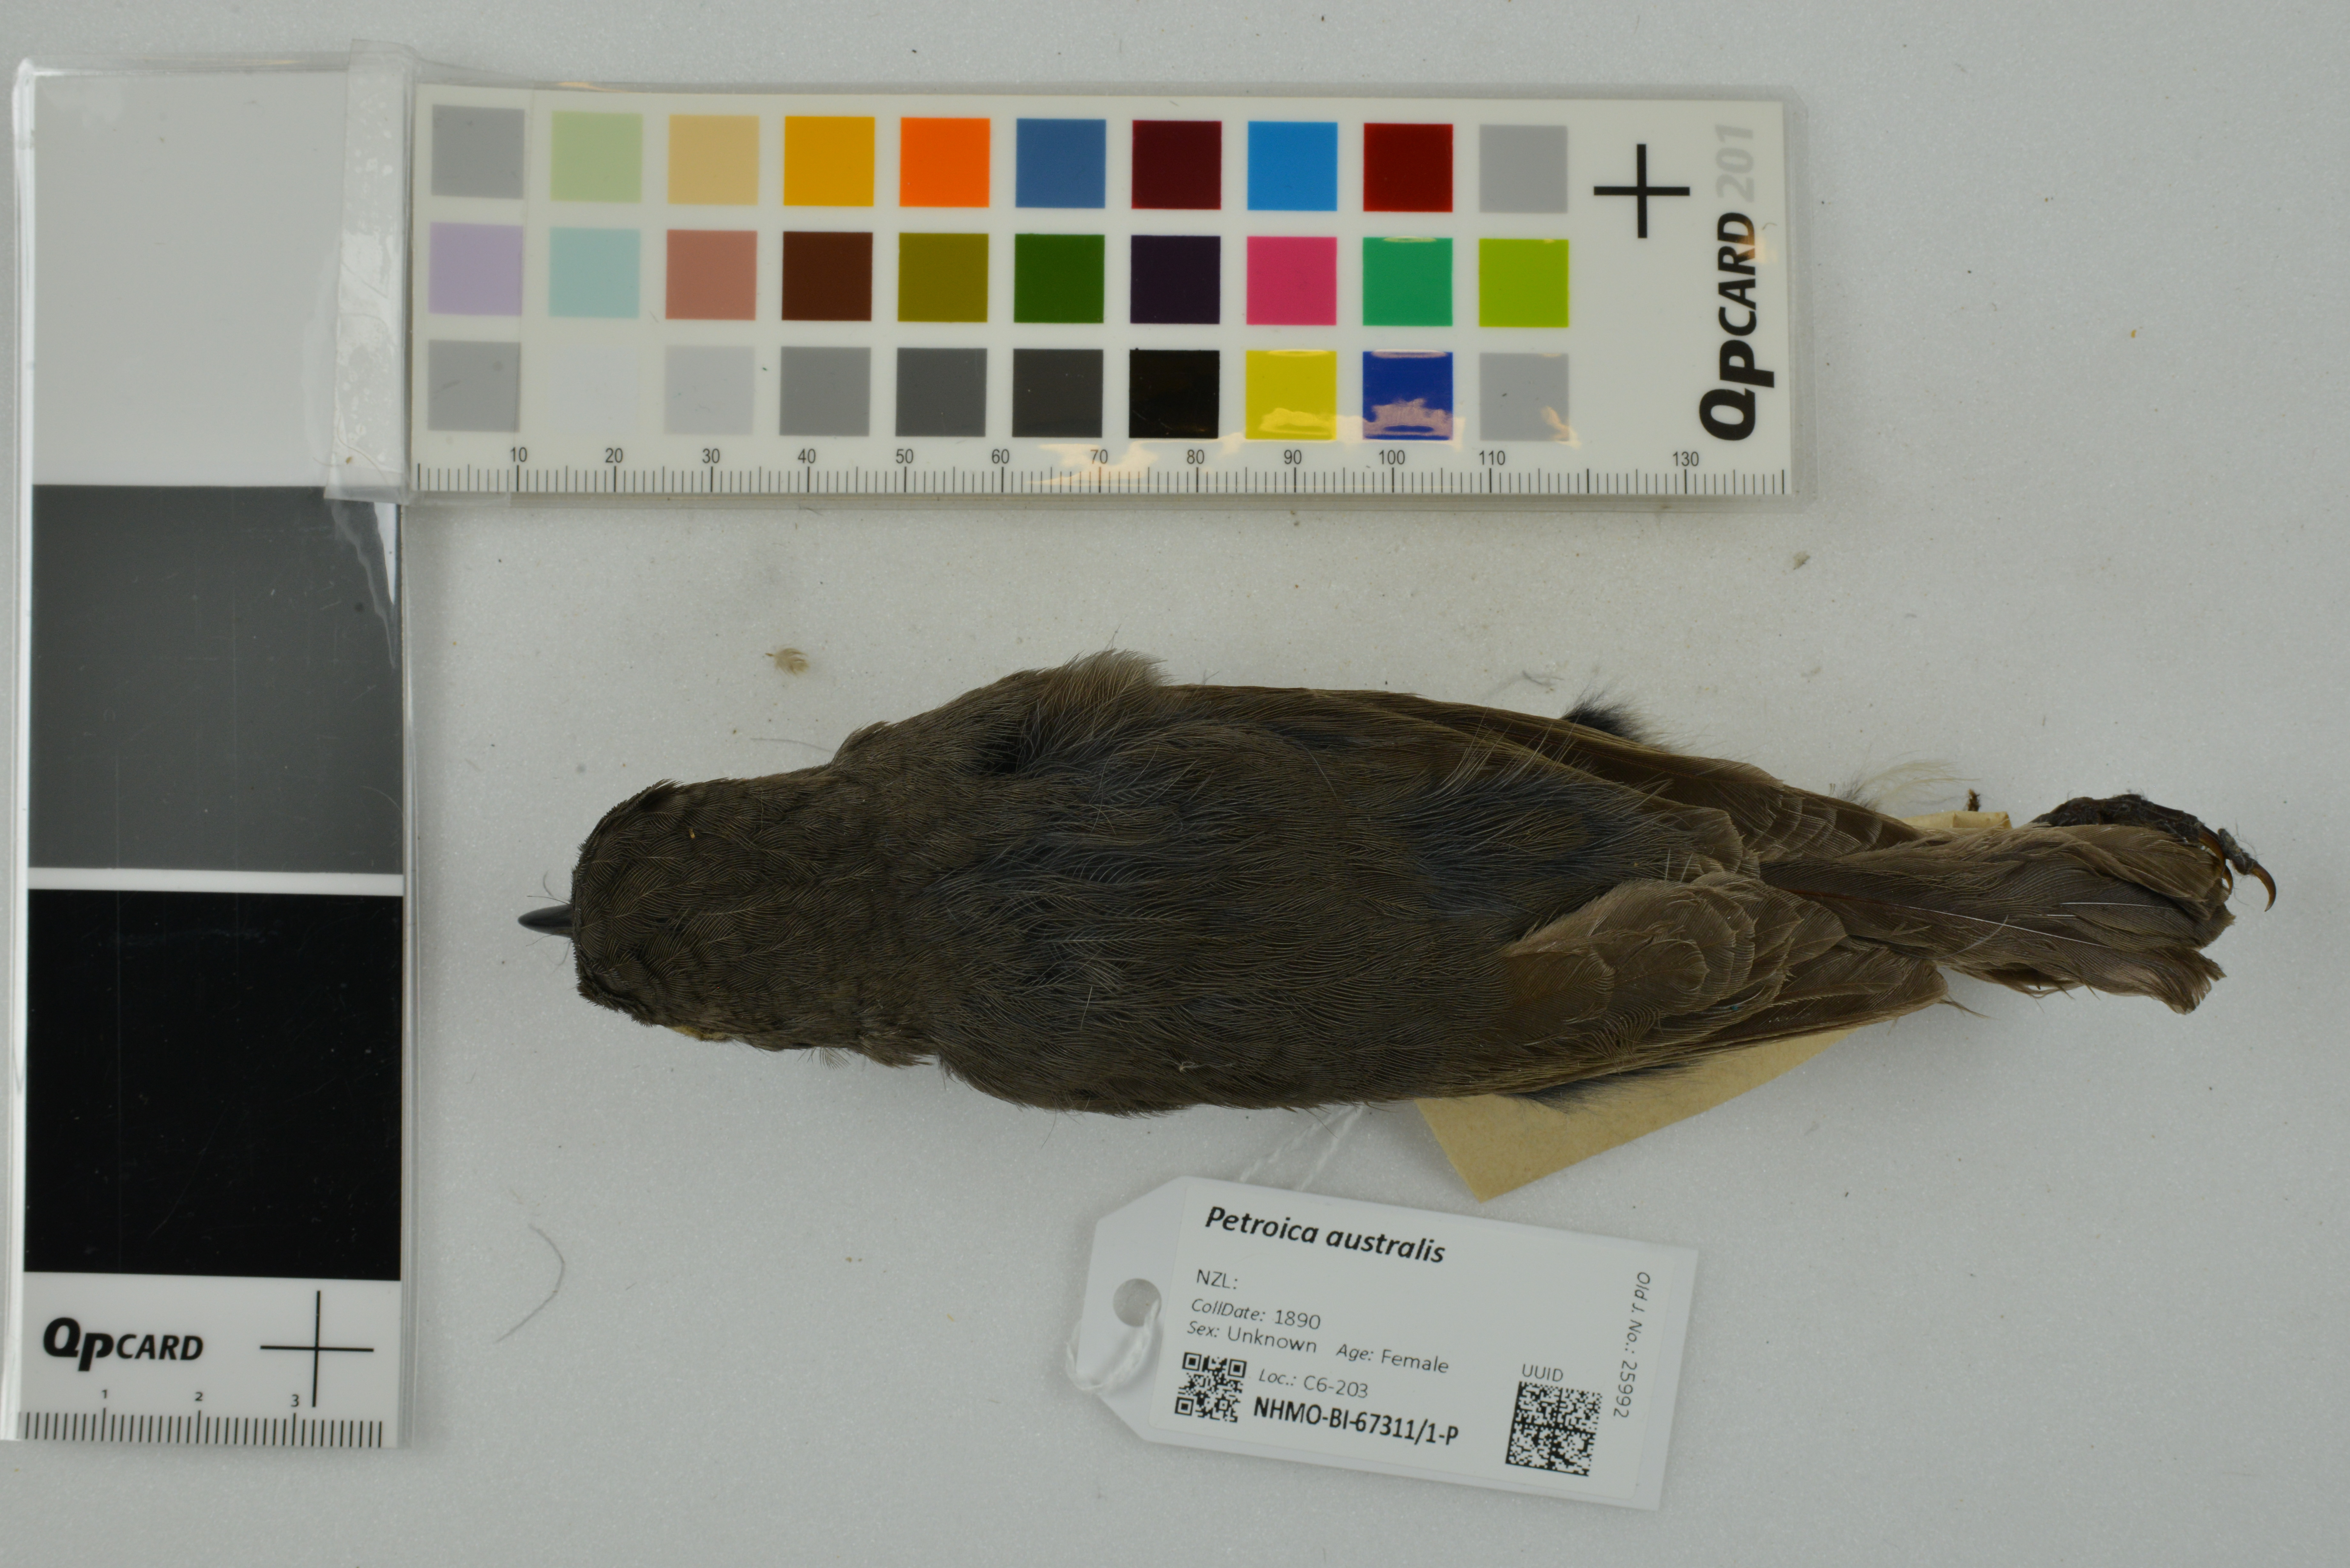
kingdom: Animalia
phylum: Chordata
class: Aves
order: Passeriformes
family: Petroicidae
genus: Petroica
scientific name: Petroica australis
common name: New zealand robin
